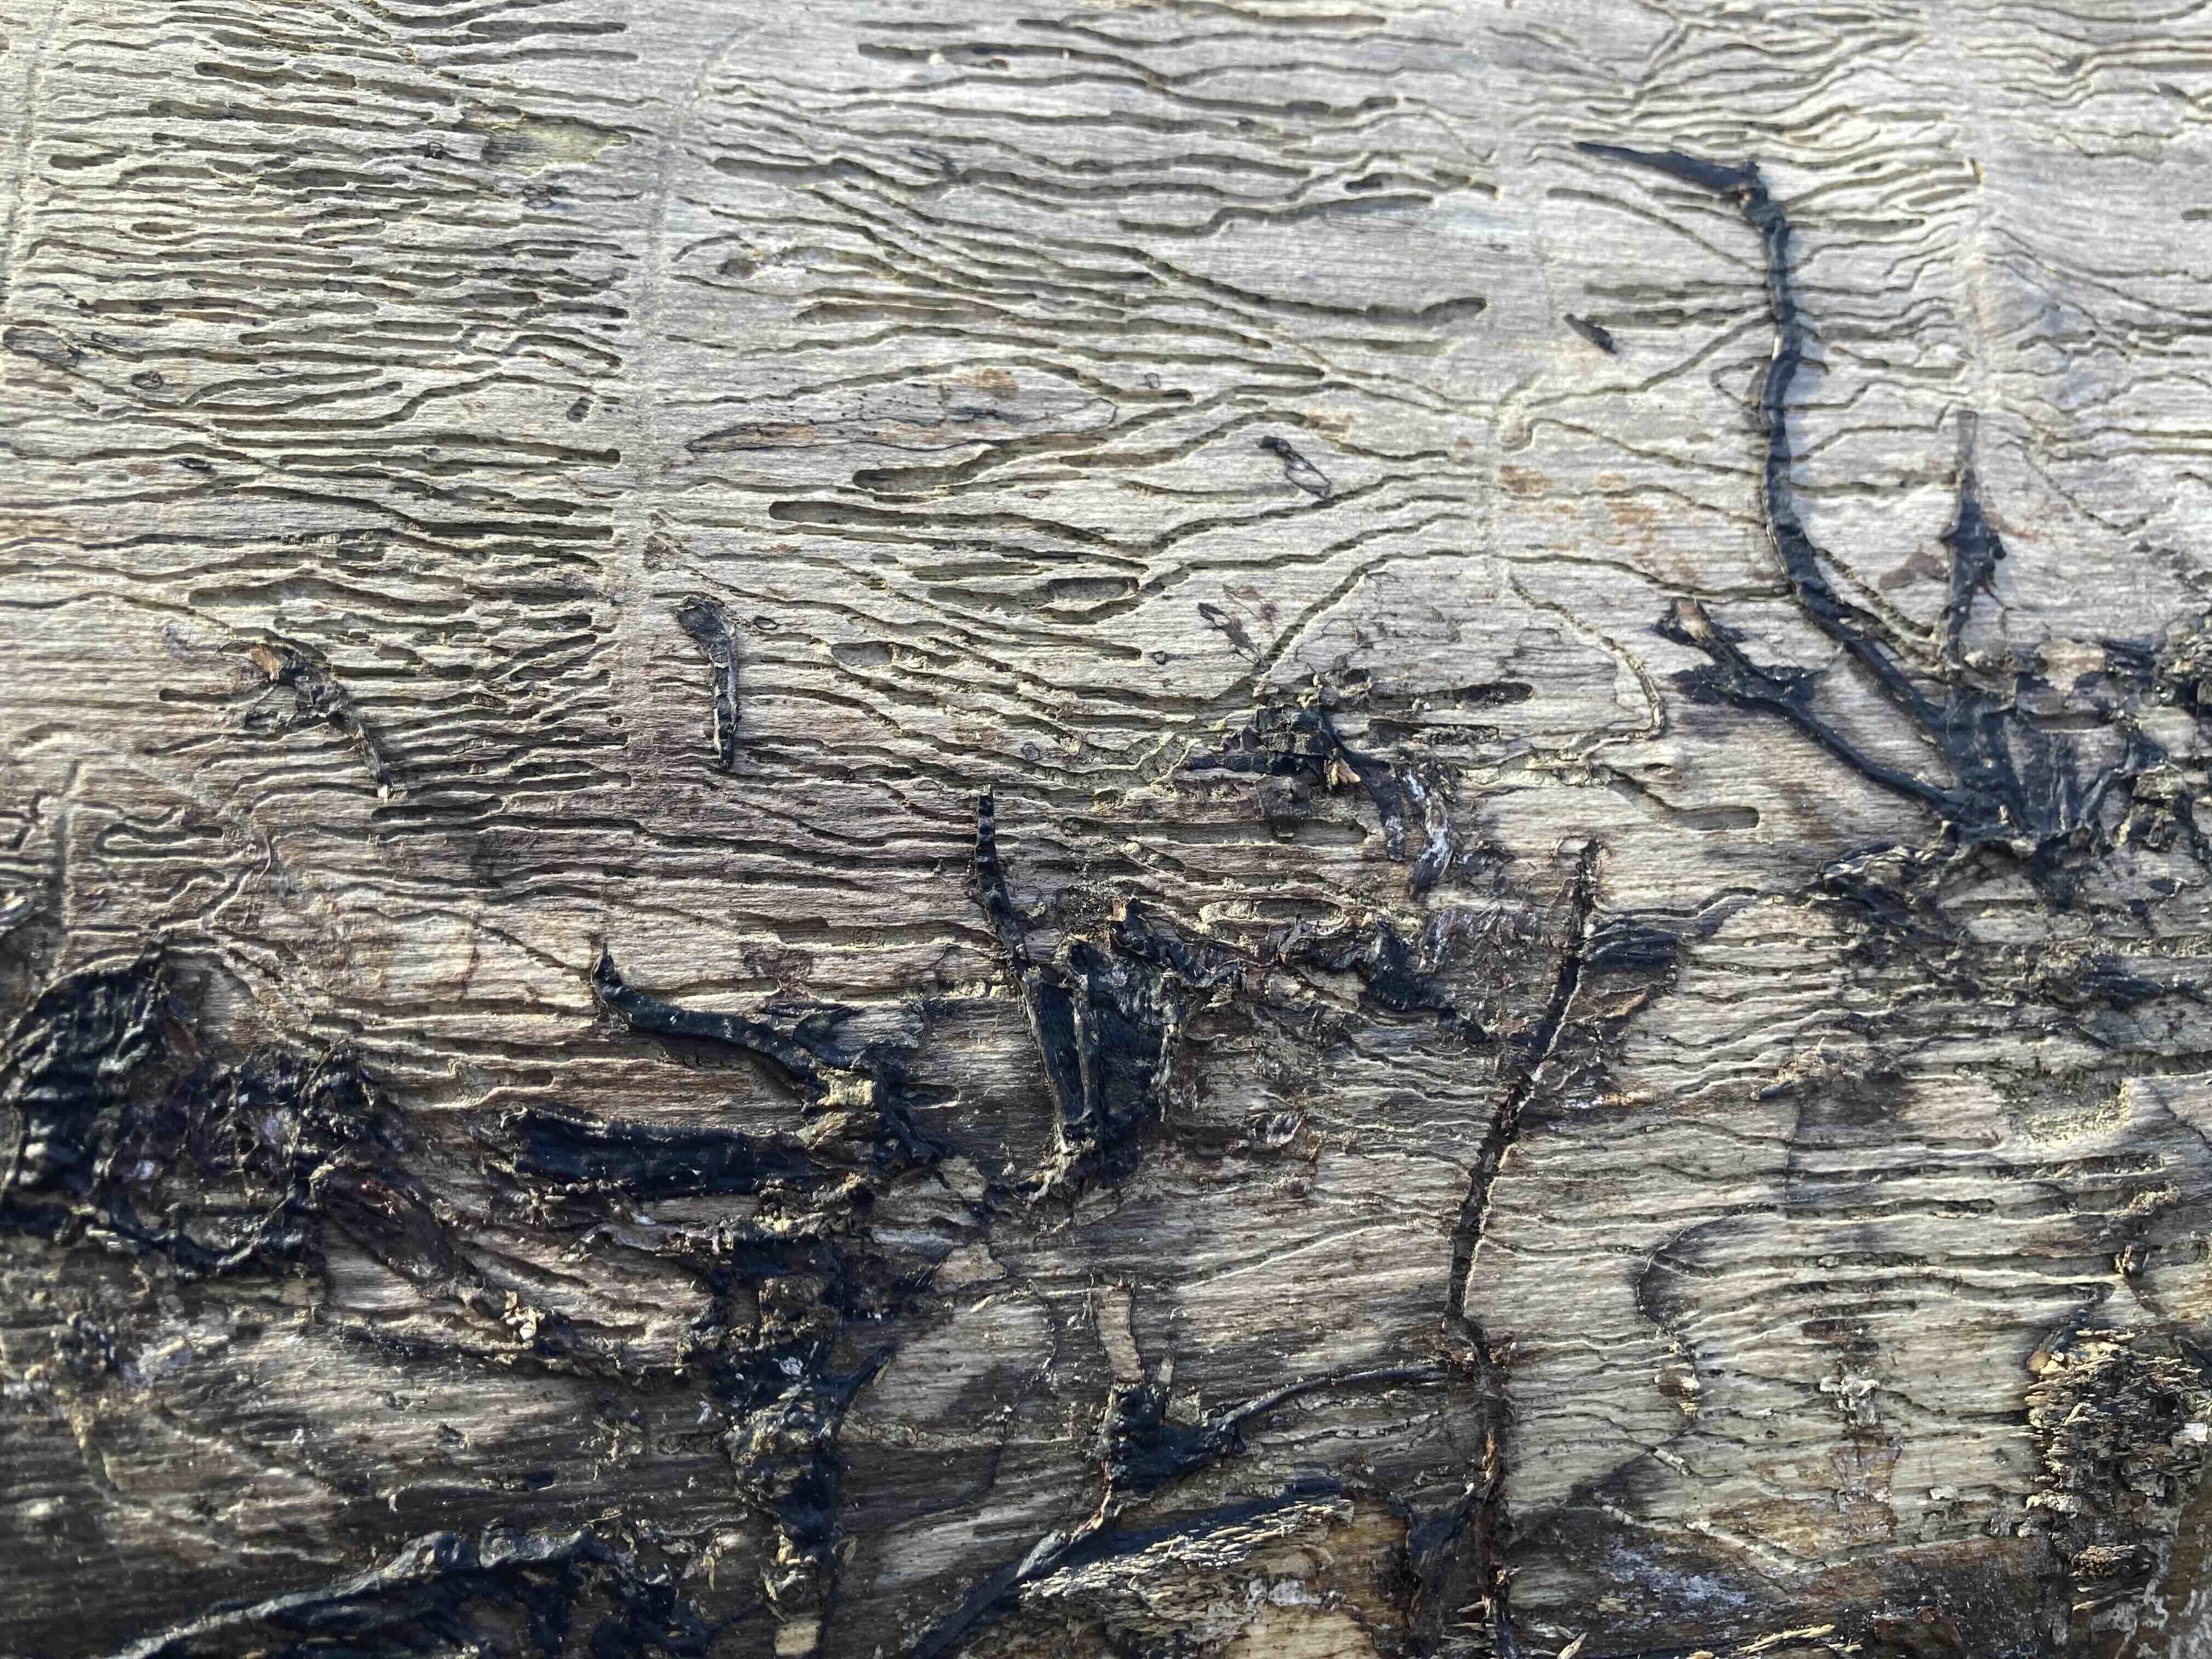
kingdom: Fungi
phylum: Basidiomycota
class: Agaricomycetes
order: Agaricales
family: Physalacriaceae
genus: Armillaria
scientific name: Armillaria
